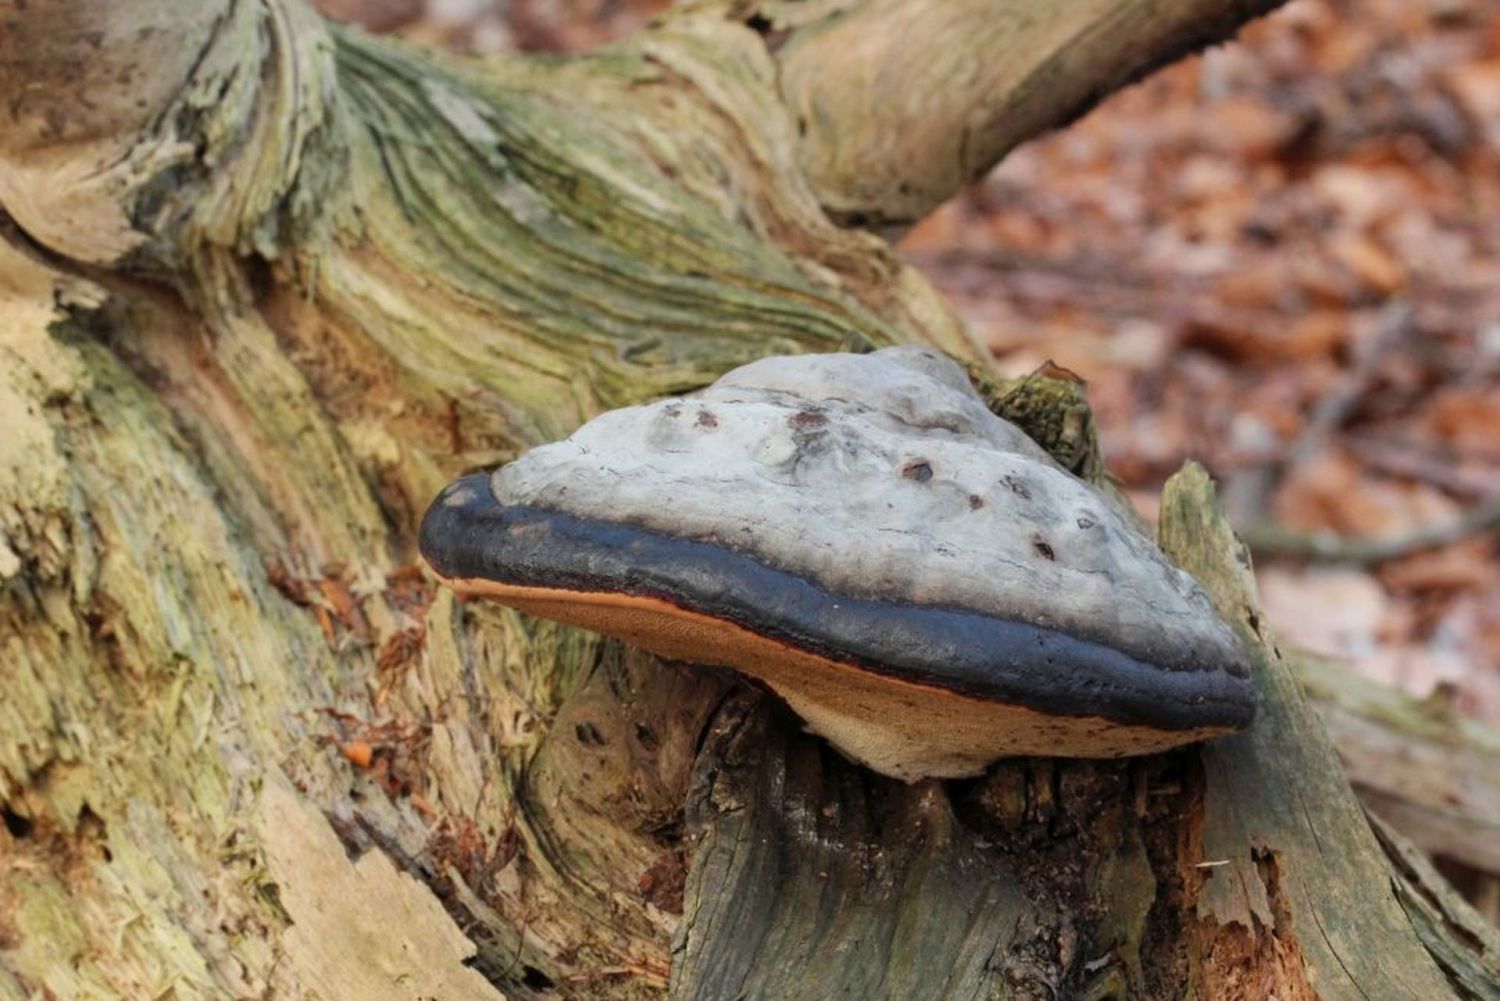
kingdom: Fungi
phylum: Basidiomycota
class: Agaricomycetes
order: Polyporales
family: Fomitopsidaceae
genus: Fomitopsis
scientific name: Fomitopsis pinicola
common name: randbæltet hovporesvamp
